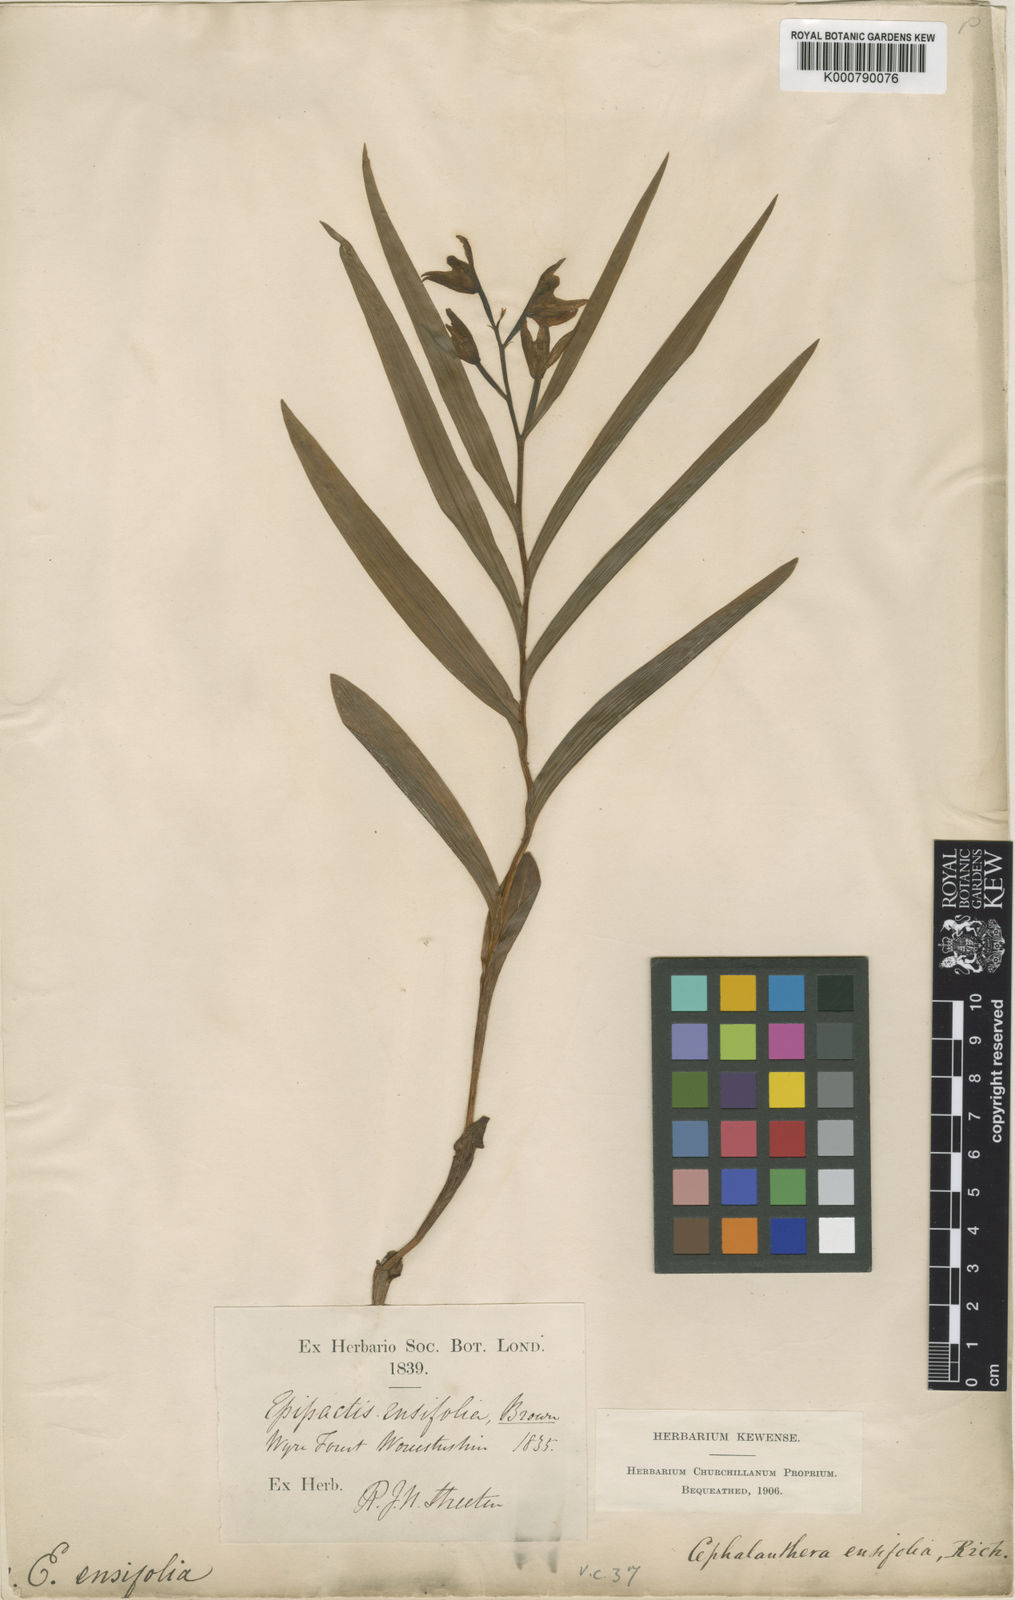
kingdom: Plantae
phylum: Tracheophyta
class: Liliopsida
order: Asparagales
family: Orchidaceae
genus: Cephalanthera
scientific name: Cephalanthera longifolia
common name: Narrow-leaved helleborine
